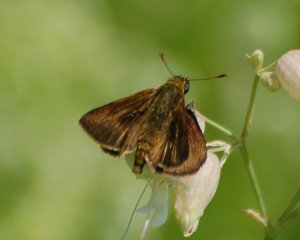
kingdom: Animalia
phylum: Arthropoda
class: Insecta
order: Lepidoptera
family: Hesperiidae
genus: Euphyes
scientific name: Euphyes vestris
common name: Dun Skipper
